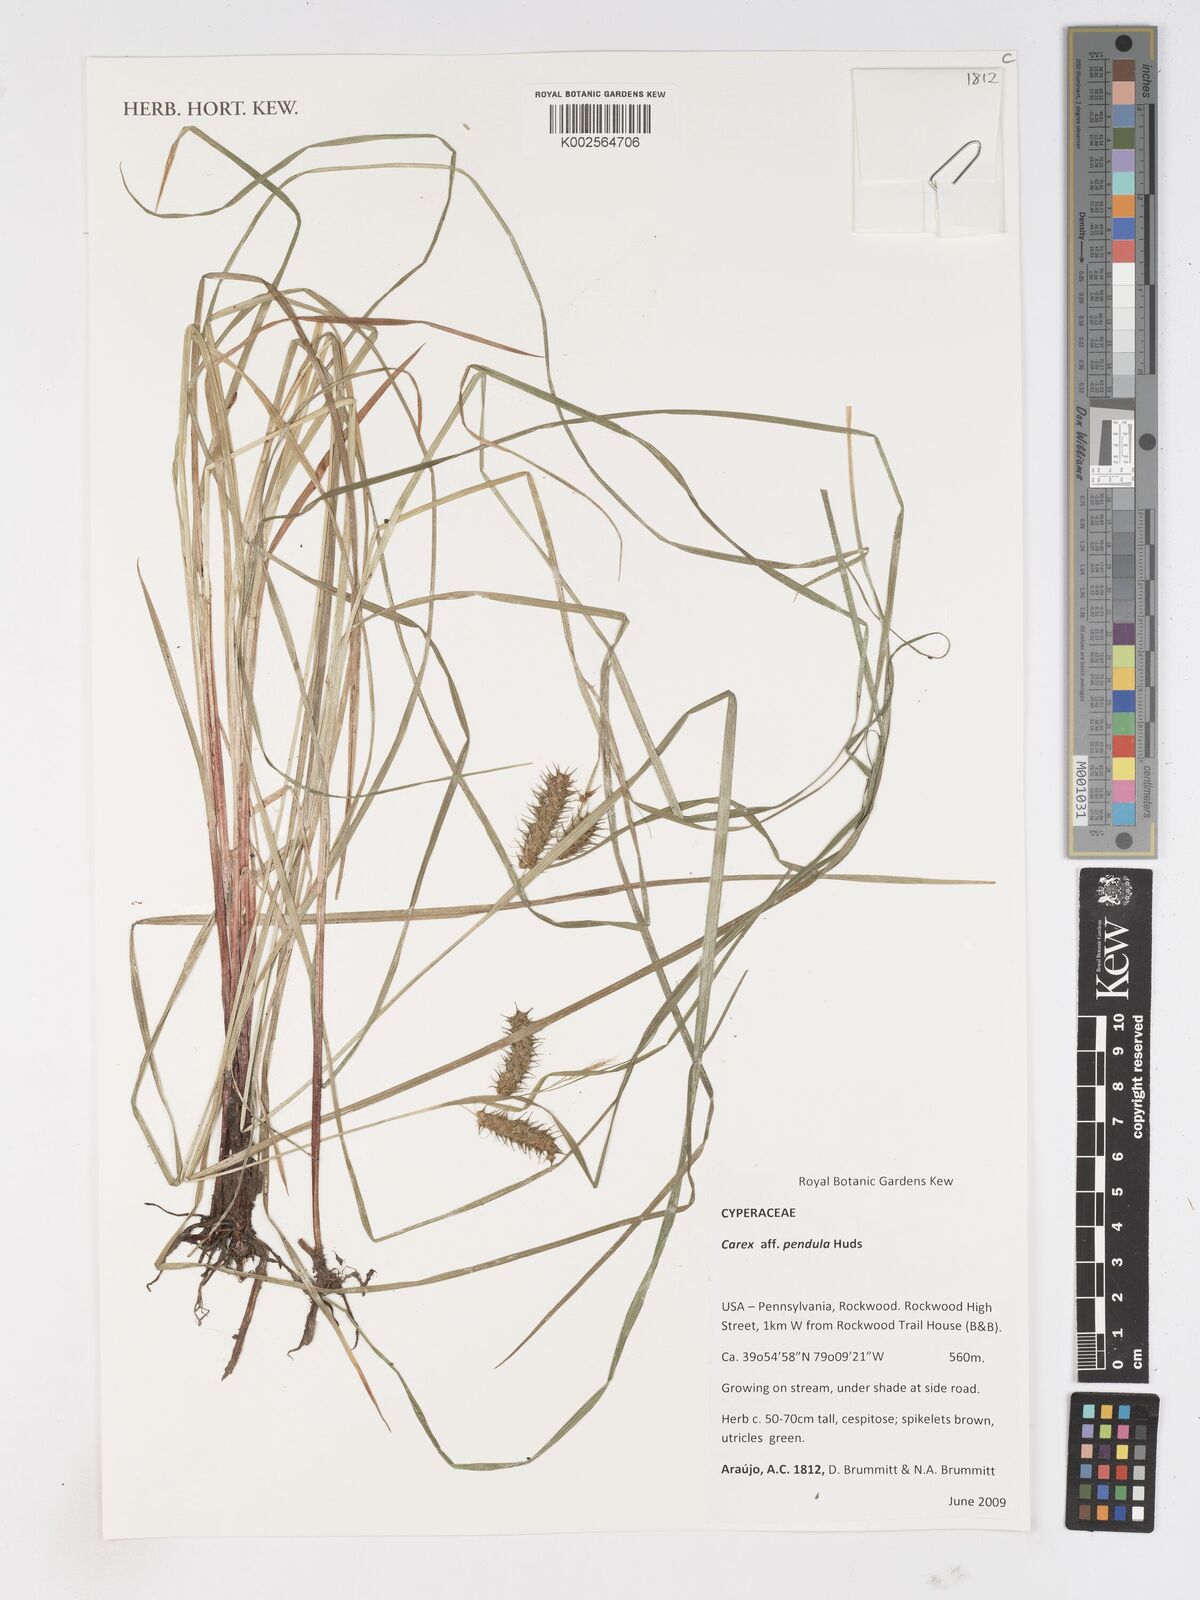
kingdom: Plantae
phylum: Tracheophyta
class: Liliopsida
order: Poales
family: Cyperaceae
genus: Carex
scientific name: Carex pendula
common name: Pendulous sedge
